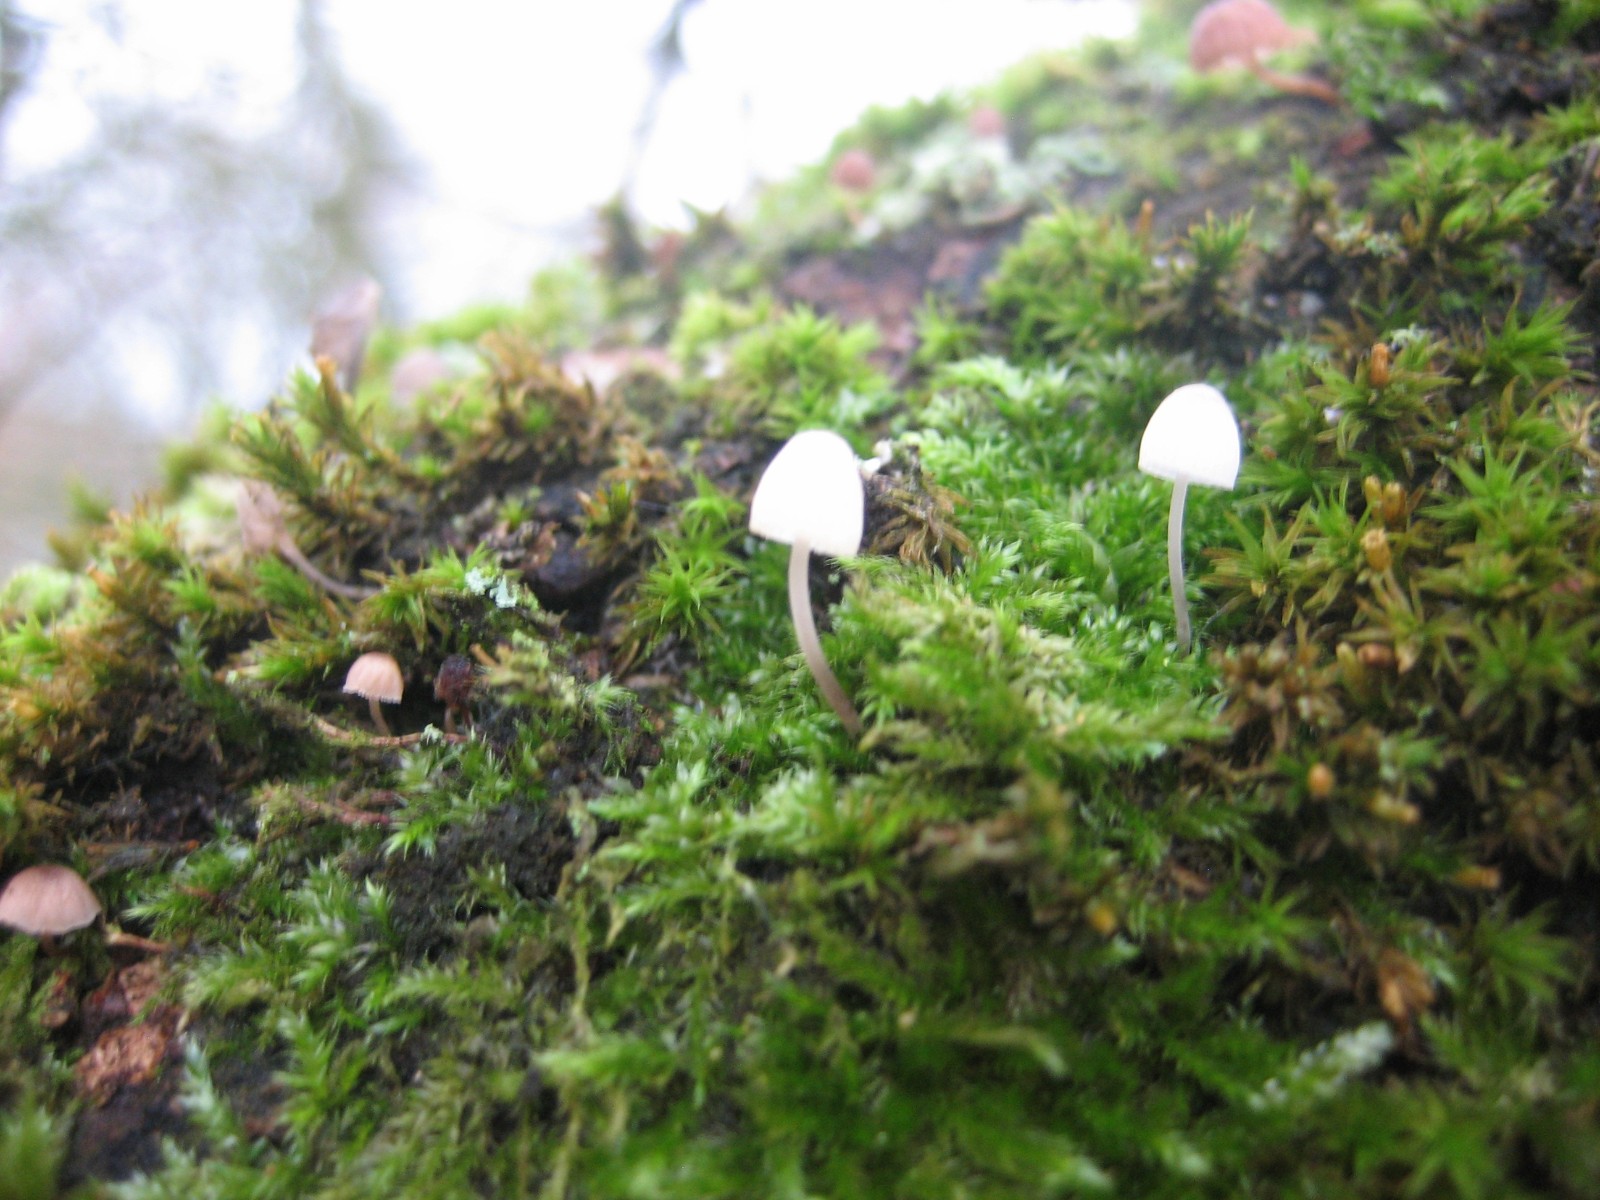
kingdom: Fungi
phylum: Basidiomycota
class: Agaricomycetes
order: Agaricales
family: Mycenaceae
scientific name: Mycenaceae
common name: huesvampfamilien
